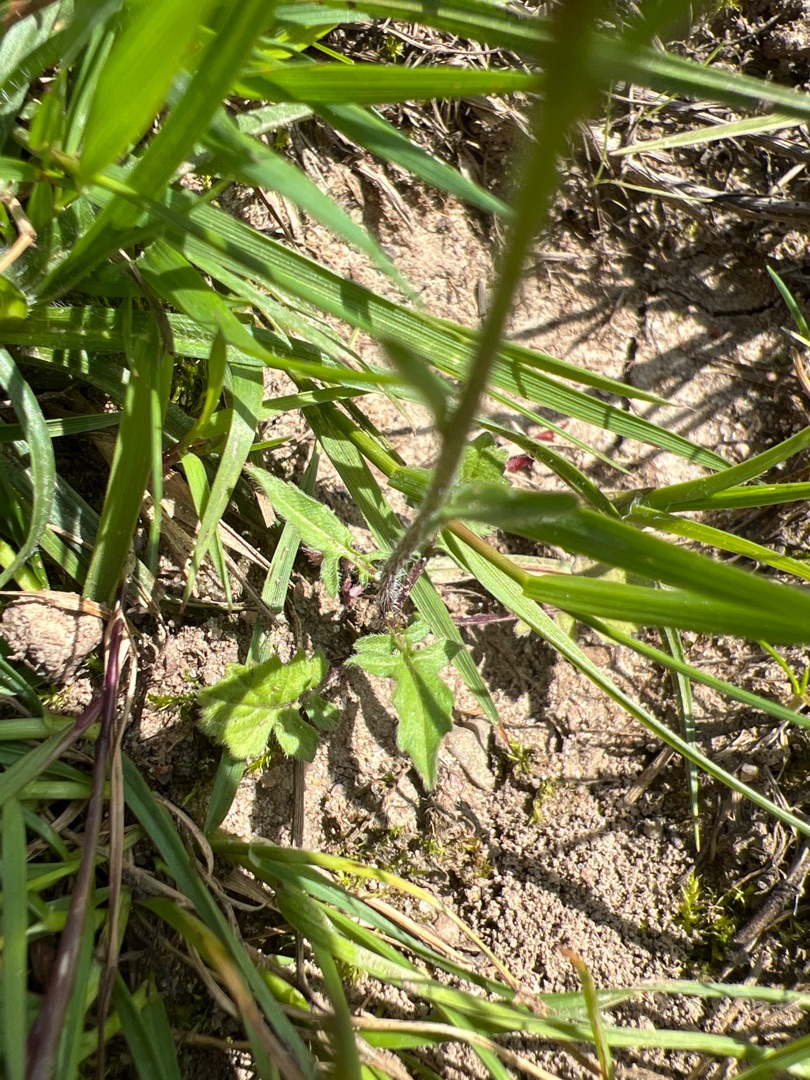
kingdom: Plantae
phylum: Tracheophyta
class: Magnoliopsida
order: Brassicales
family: Brassicaceae
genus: Sisymbrium
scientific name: Sisymbrium officinale
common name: Rank vejsennep
